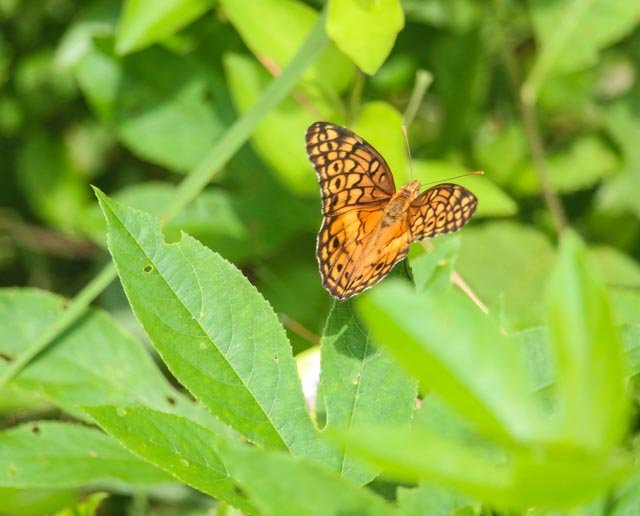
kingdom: Animalia
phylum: Arthropoda
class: Insecta
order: Lepidoptera
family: Nymphalidae
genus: Euptoieta
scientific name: Euptoieta claudia
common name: Variegated Fritillary
